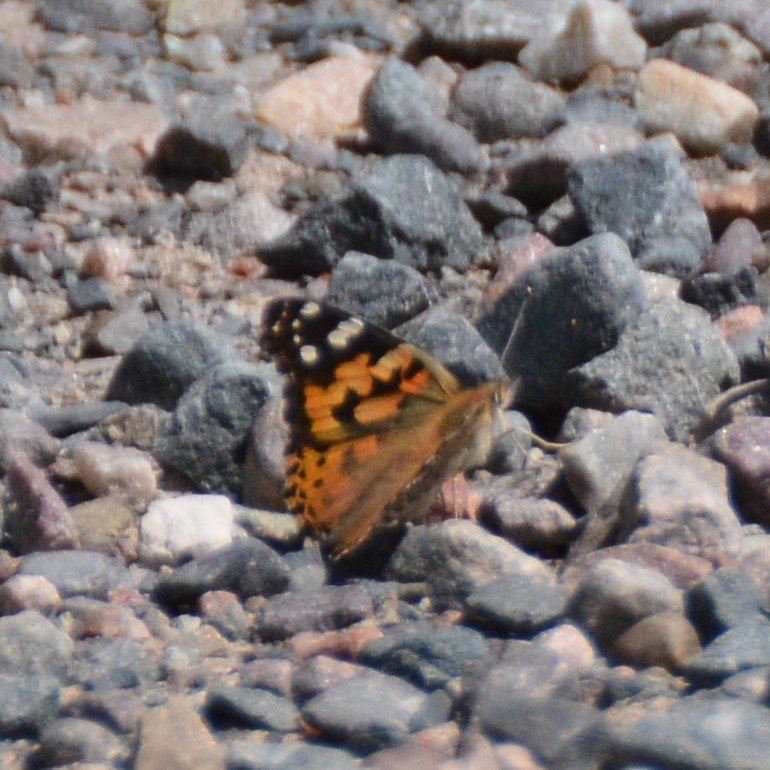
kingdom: Animalia
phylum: Arthropoda
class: Insecta
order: Lepidoptera
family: Nymphalidae
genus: Vanessa
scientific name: Vanessa cardui
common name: Painted Lady
